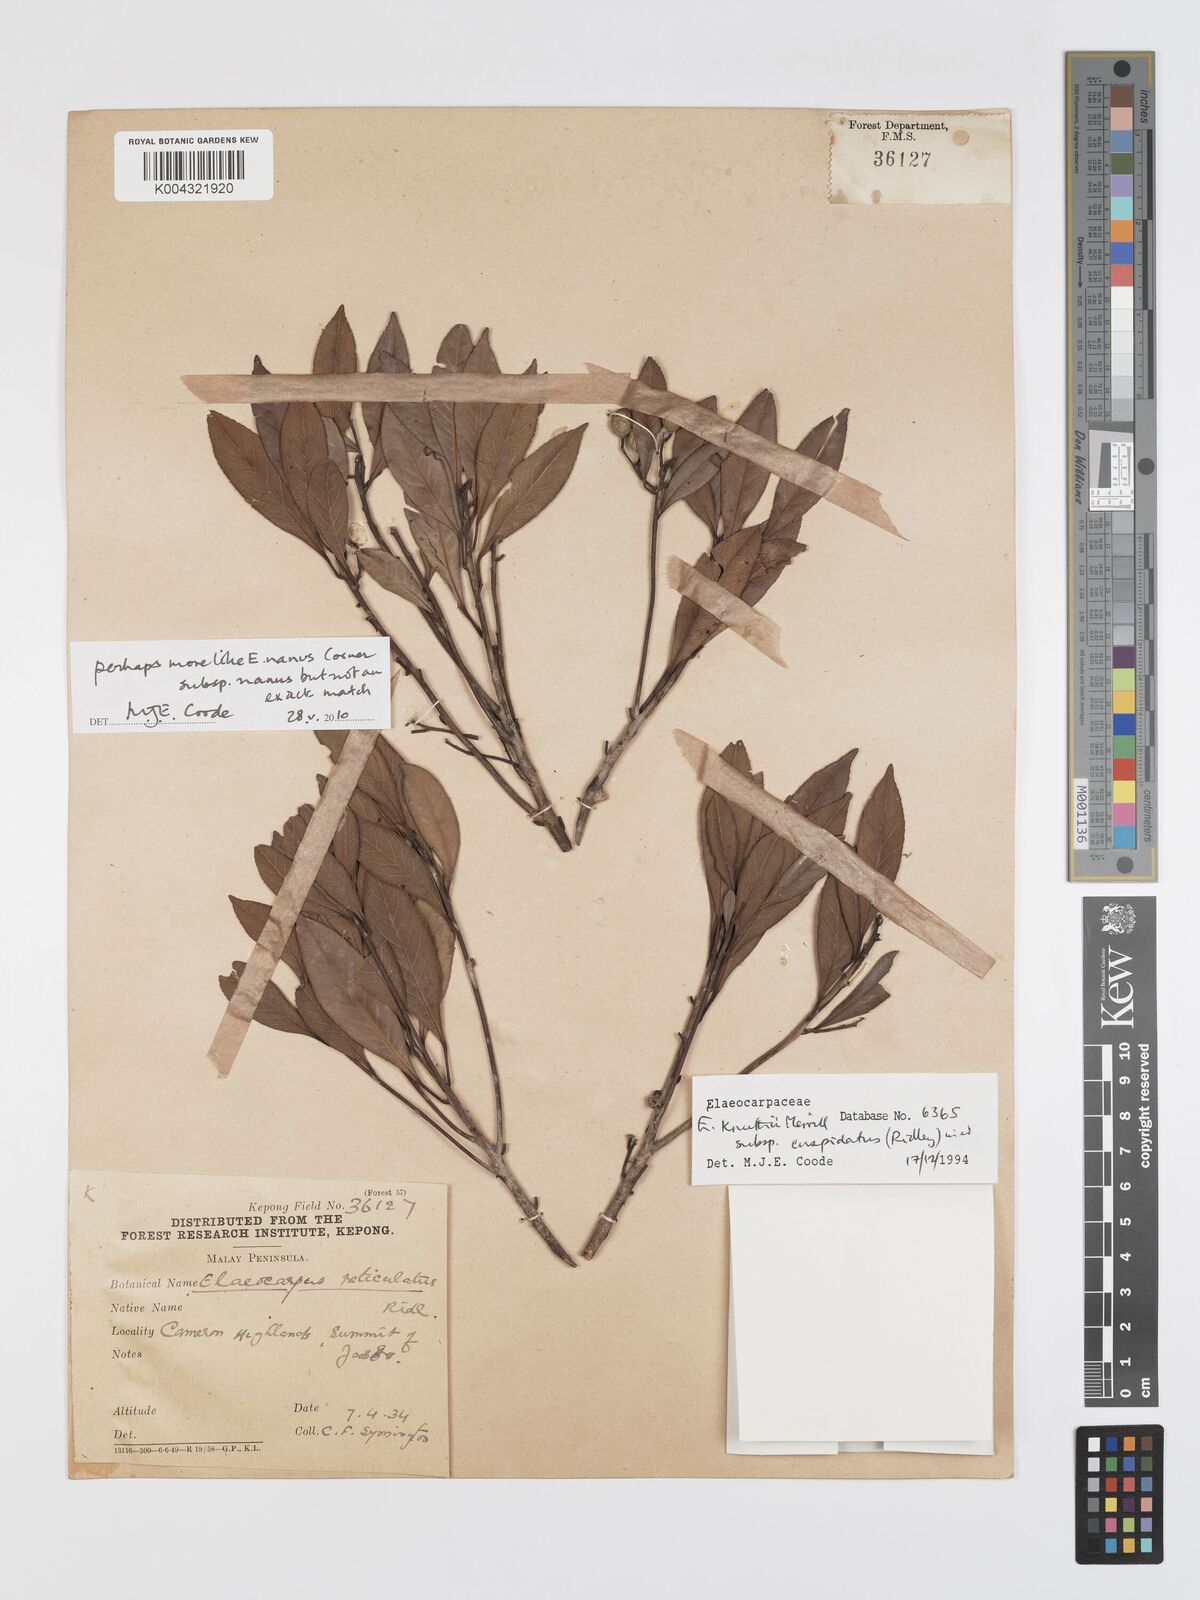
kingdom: Plantae
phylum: Tracheophyta
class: Magnoliopsida
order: Oxalidales
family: Elaeocarpaceae
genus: Elaeocarpus
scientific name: Elaeocarpus nanus
